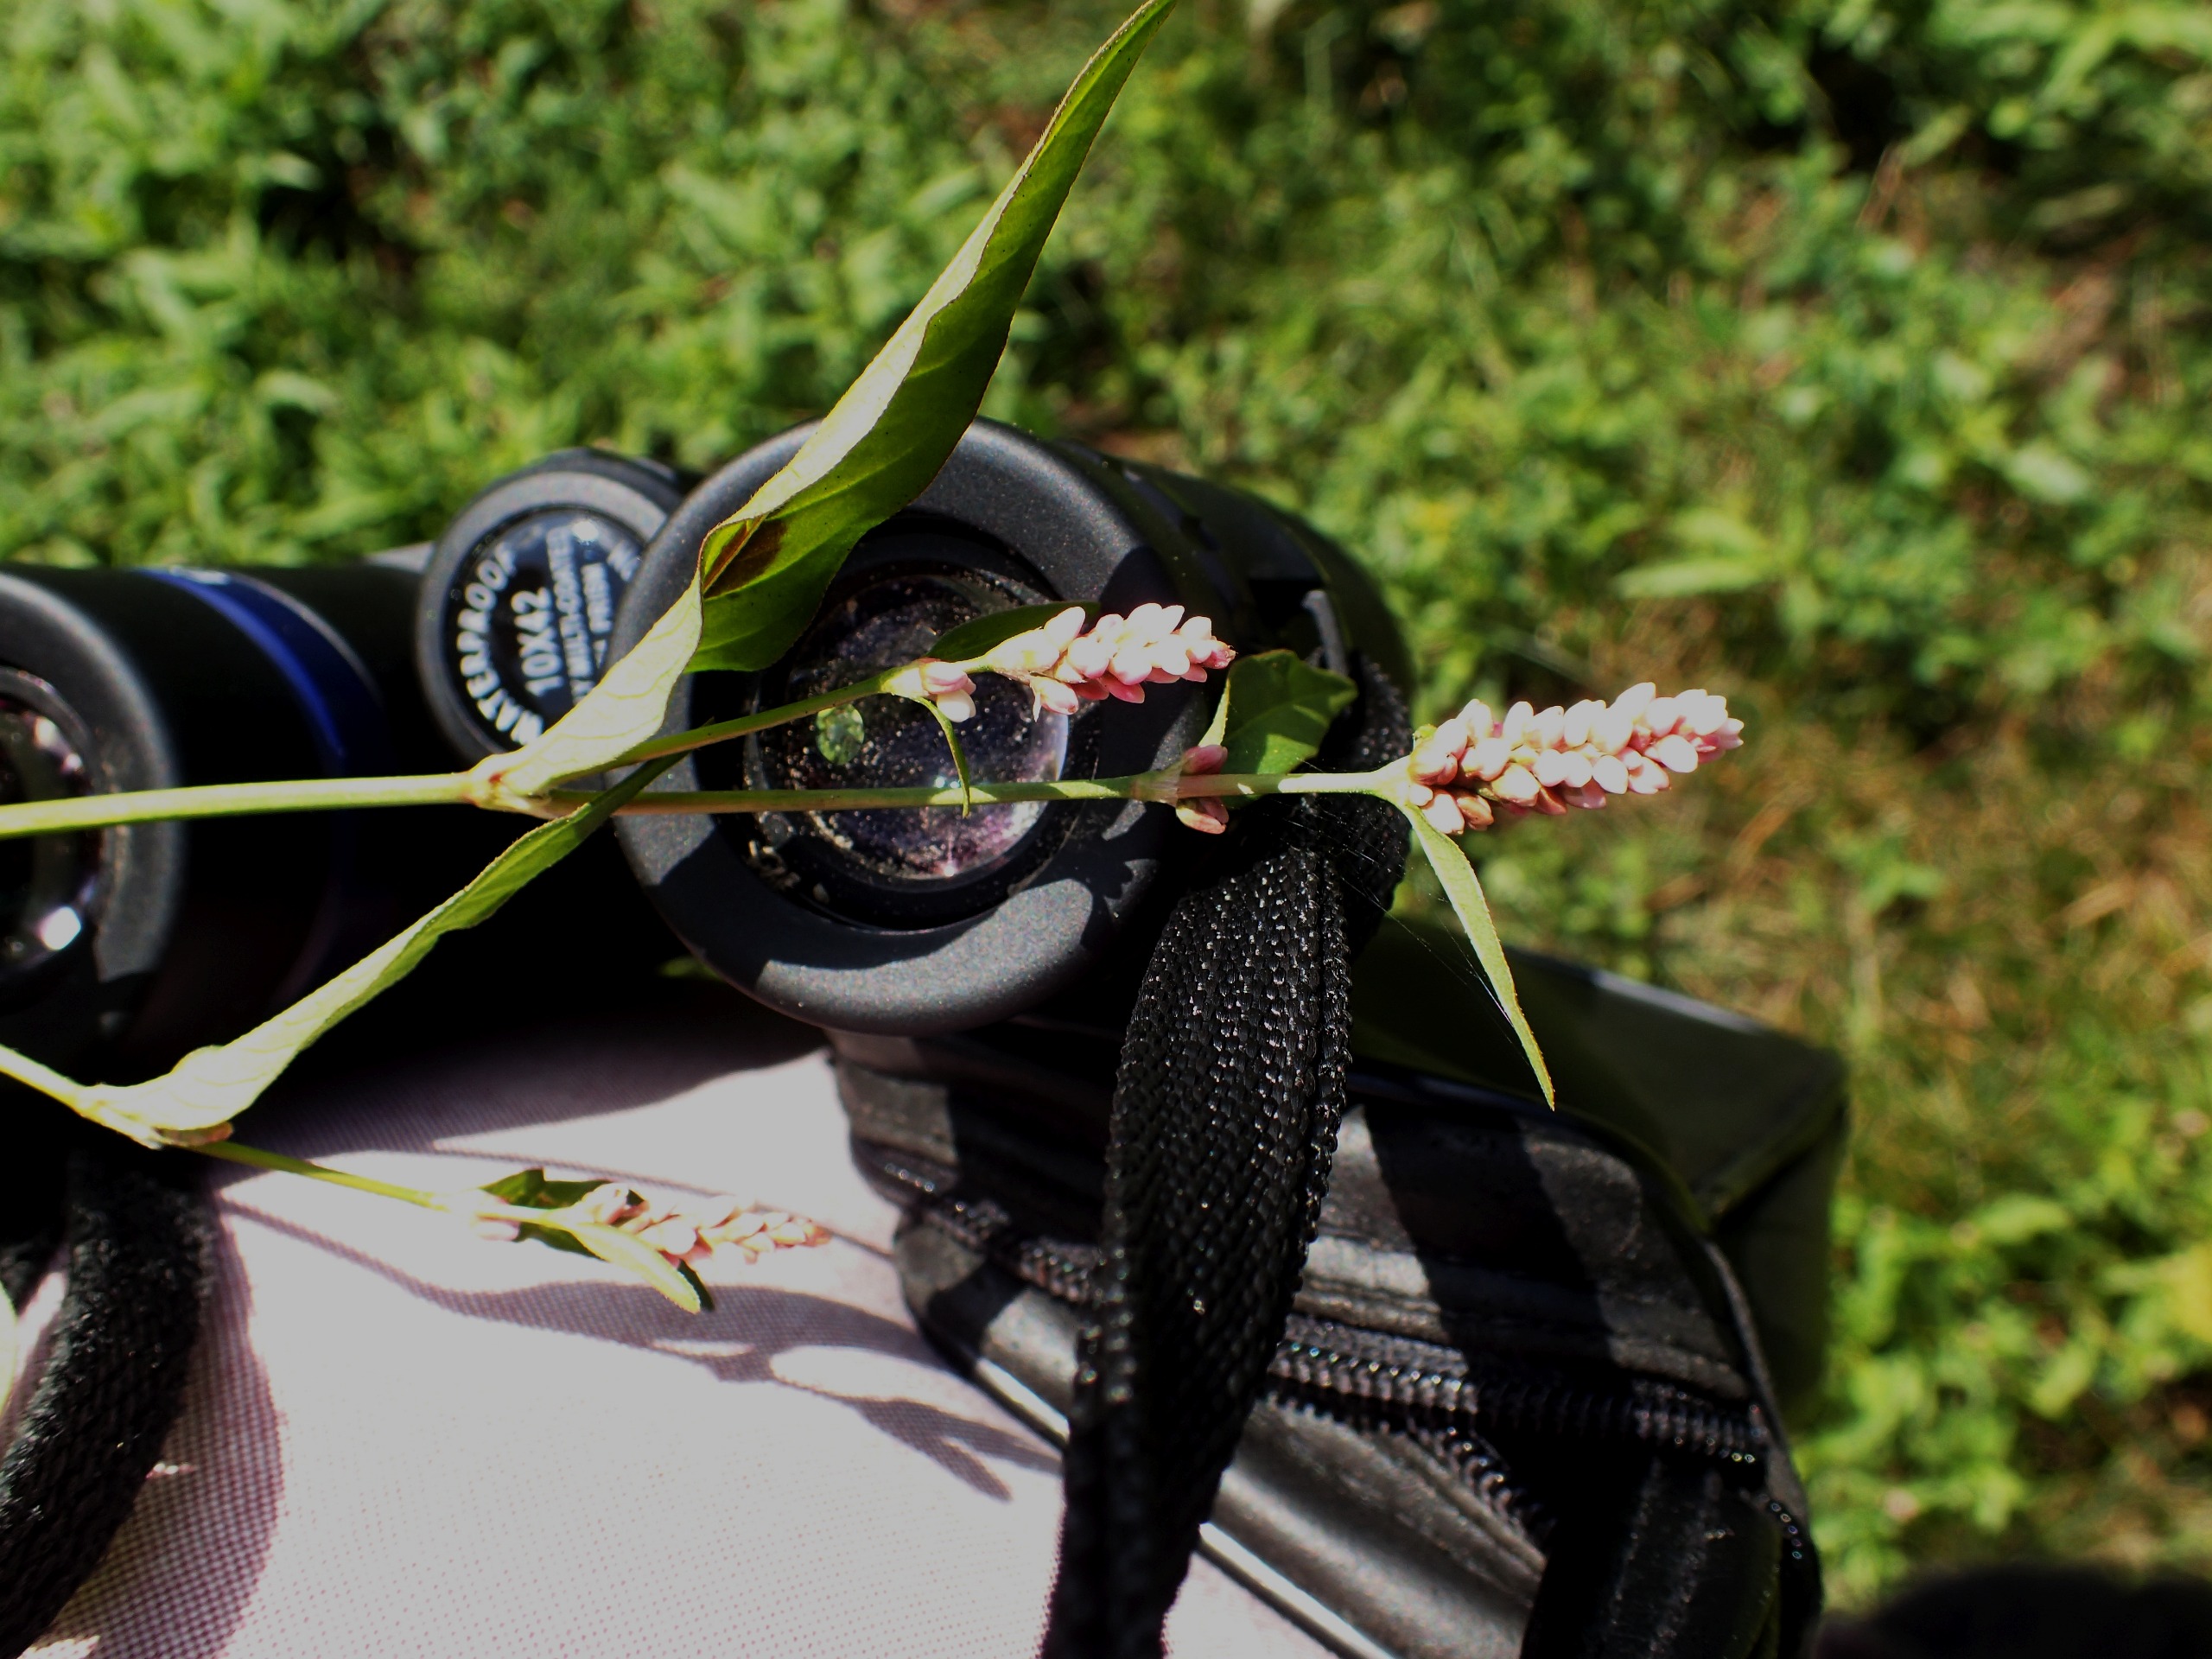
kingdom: Plantae
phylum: Tracheophyta
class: Magnoliopsida
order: Caryophyllales
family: Polygonaceae
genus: Persicaria
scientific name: Persicaria maculosa
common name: Fersken-pileurt
